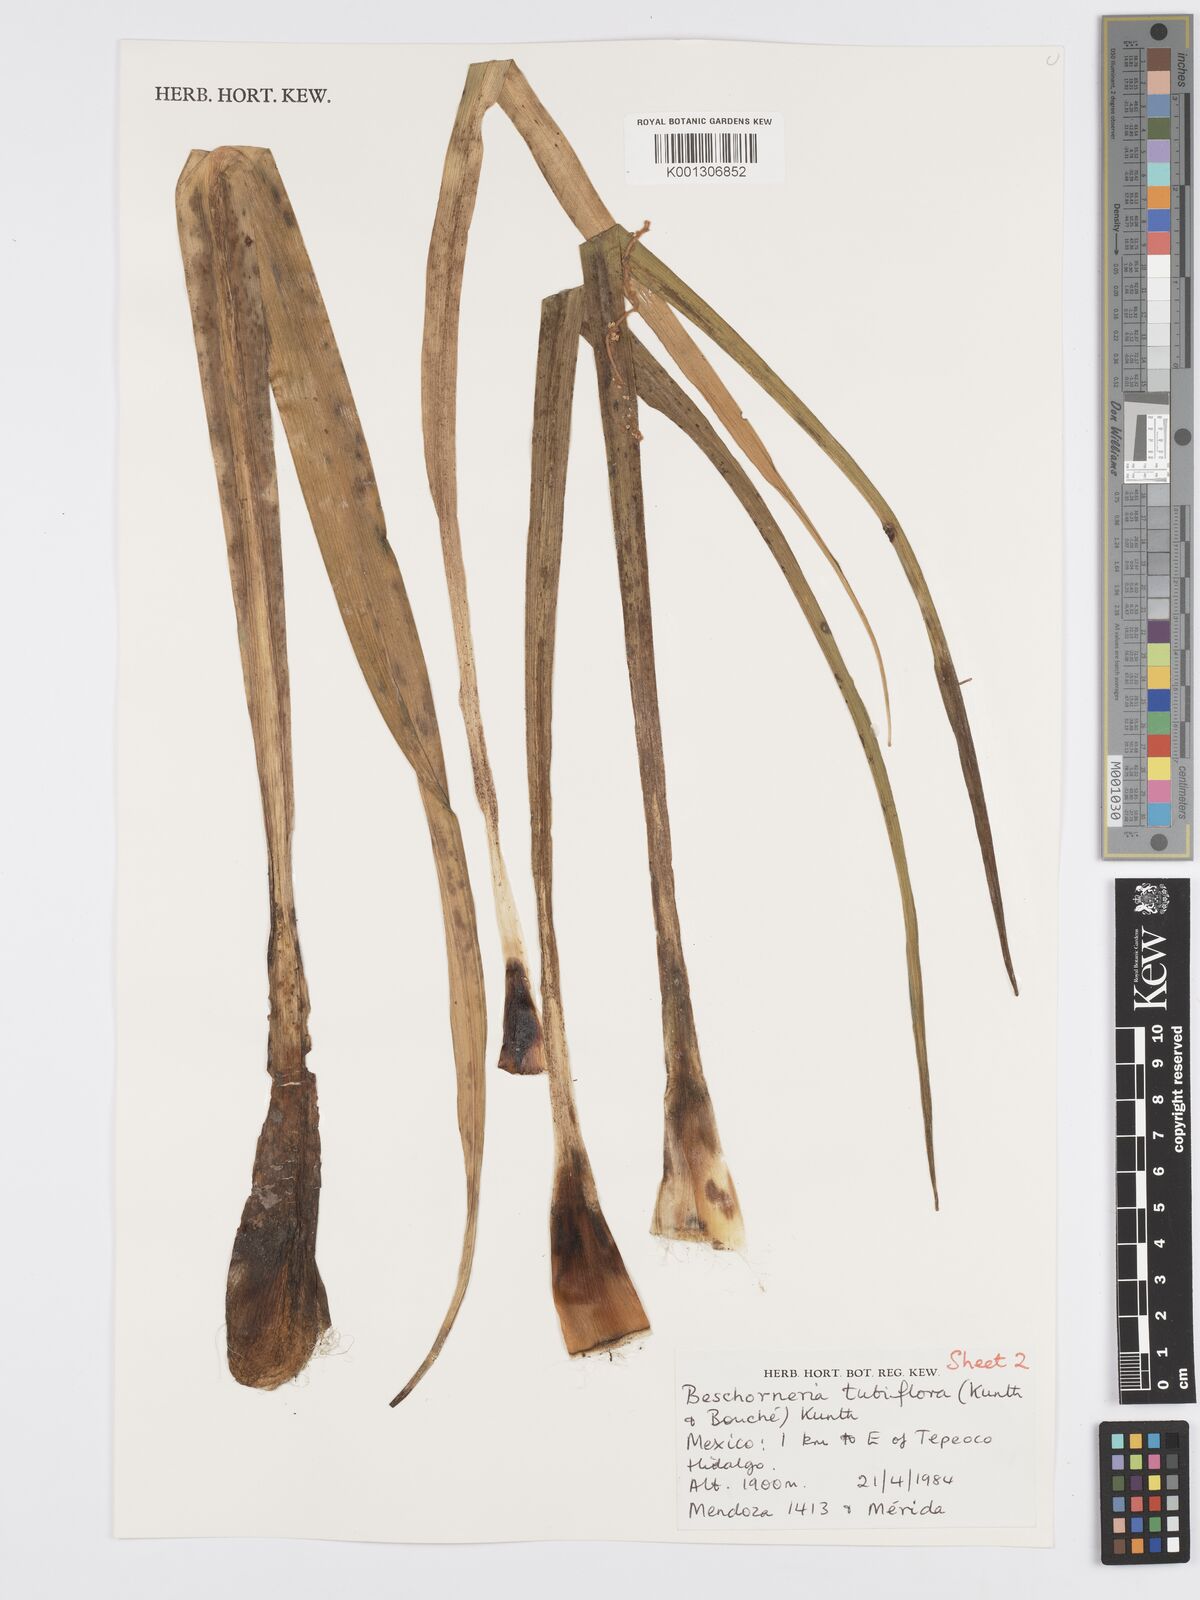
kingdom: Plantae
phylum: Tracheophyta
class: Liliopsida
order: Asparagales
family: Asparagaceae
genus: Beschorneria
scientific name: Beschorneria tubiflora
